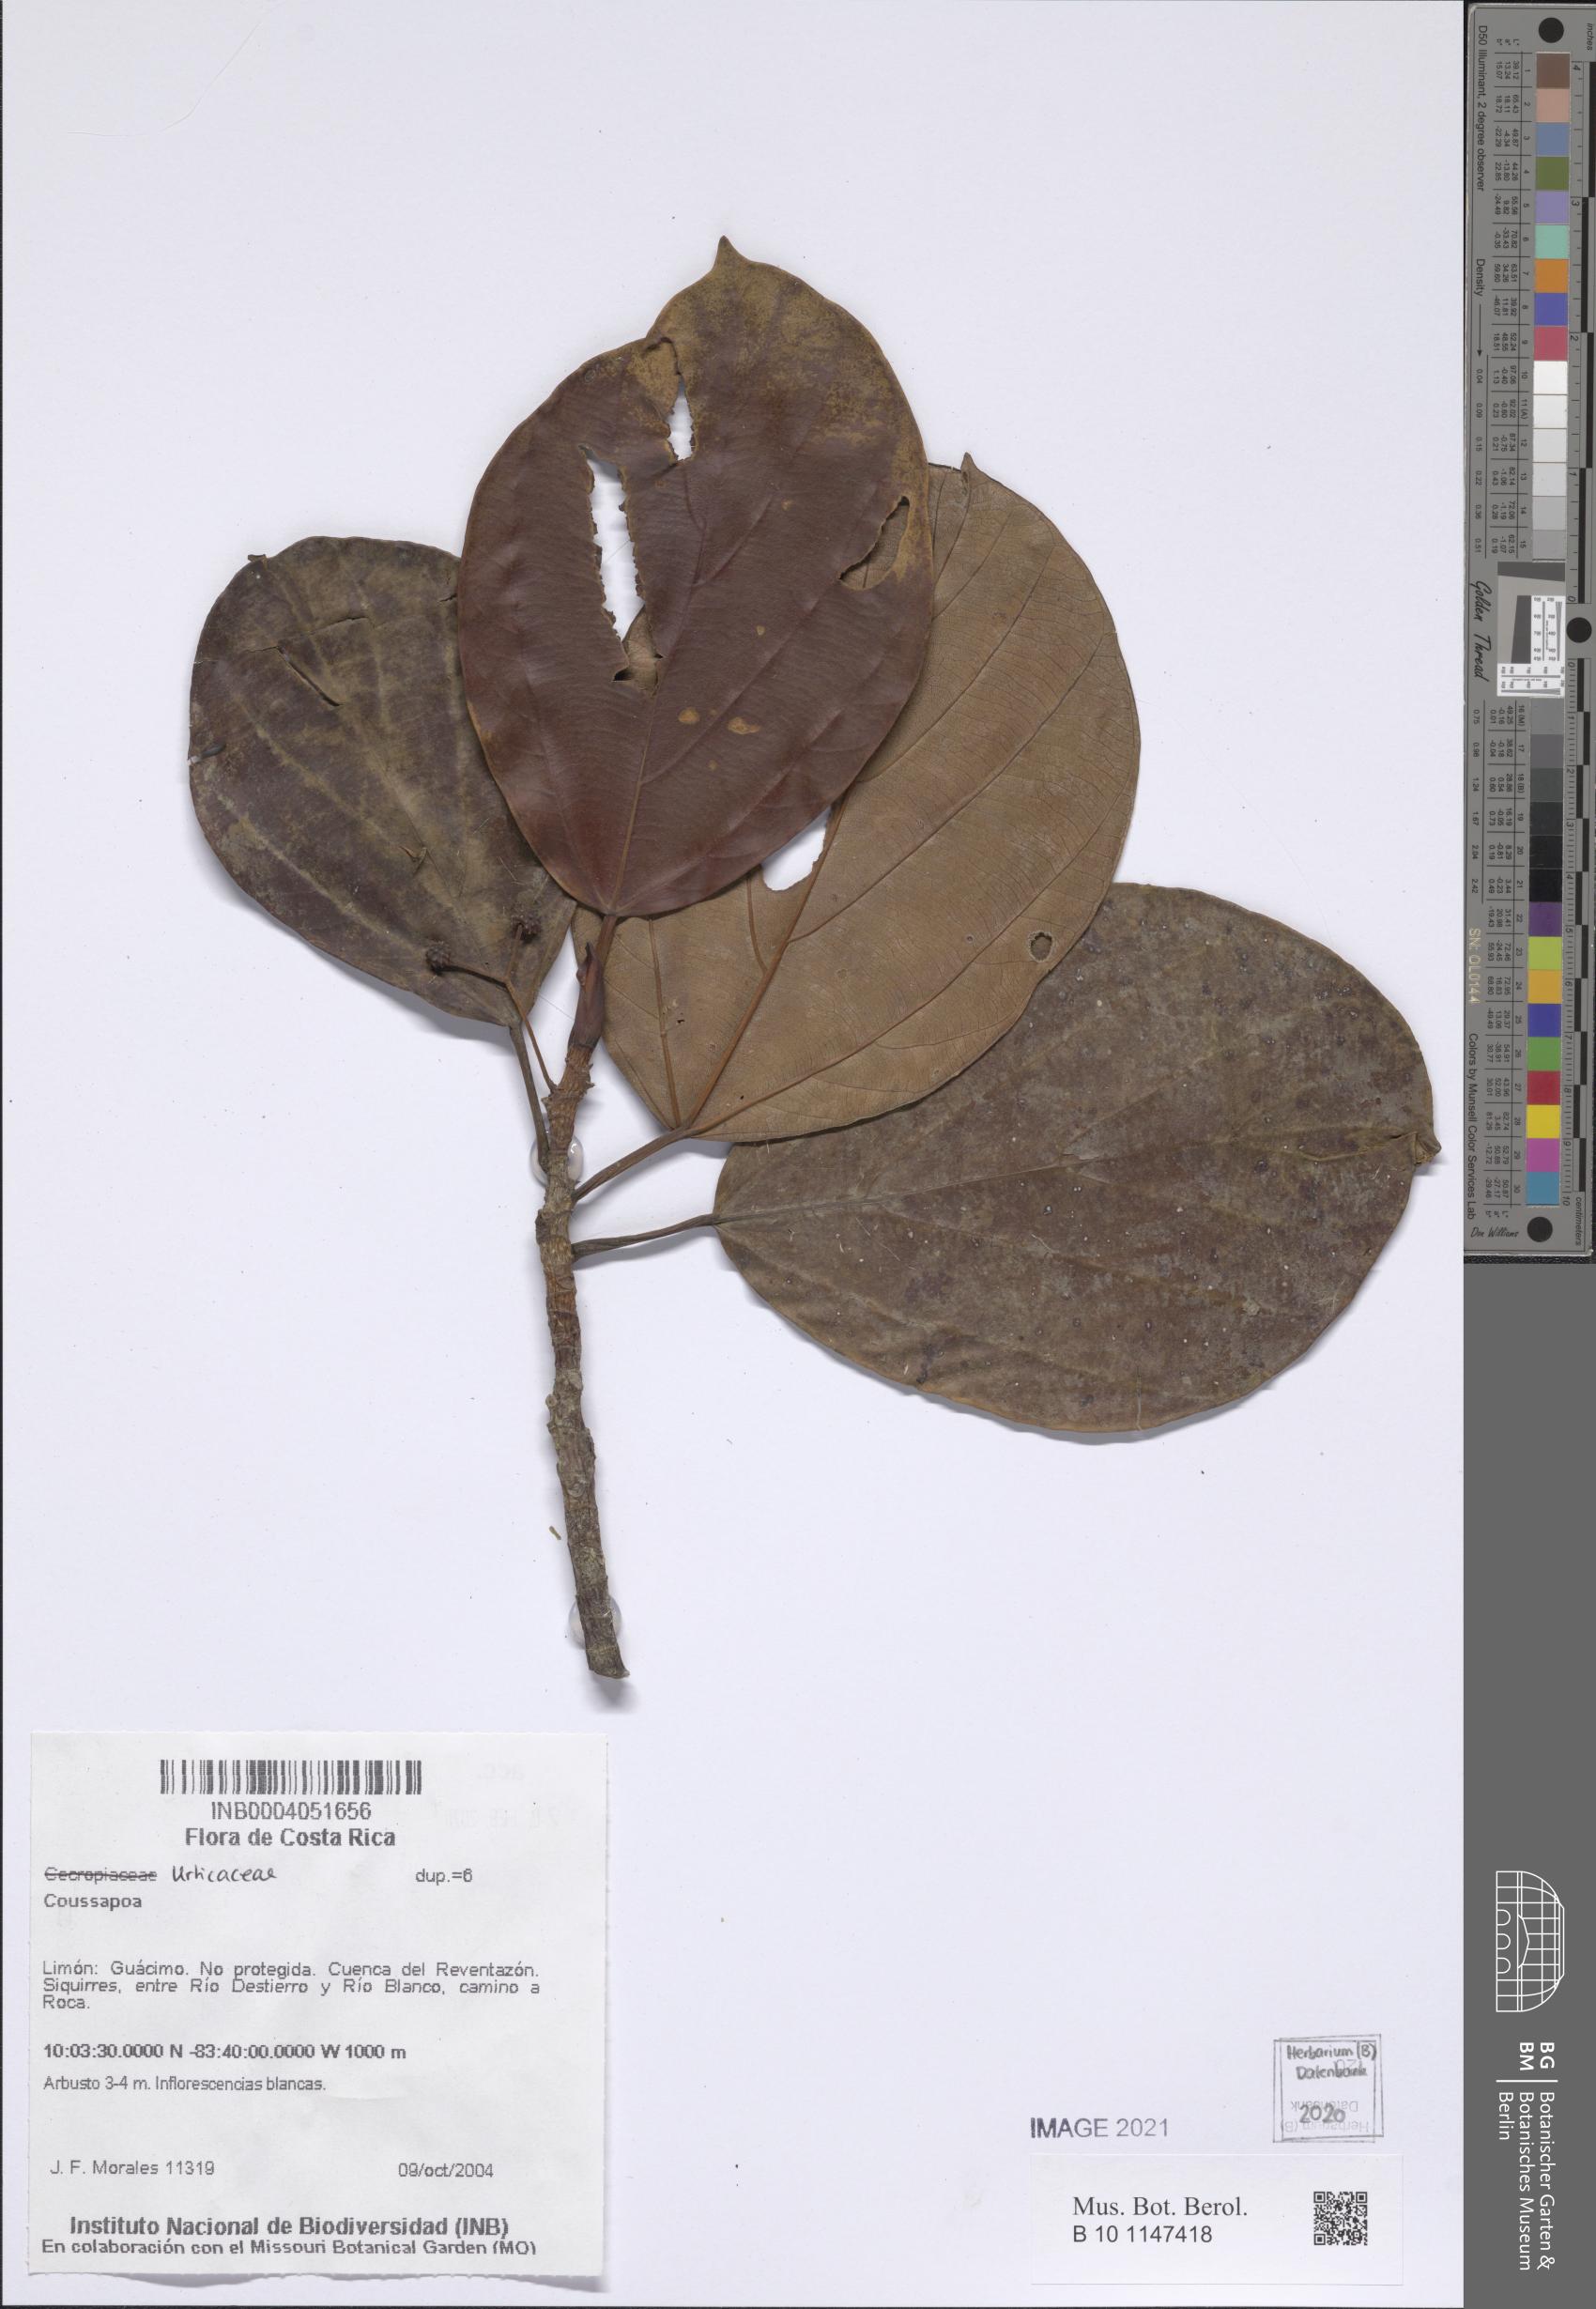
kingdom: Plantae
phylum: Tracheophyta
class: Magnoliopsida
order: Rosales
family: Urticaceae
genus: Coussapoa
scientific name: Coussapoa
